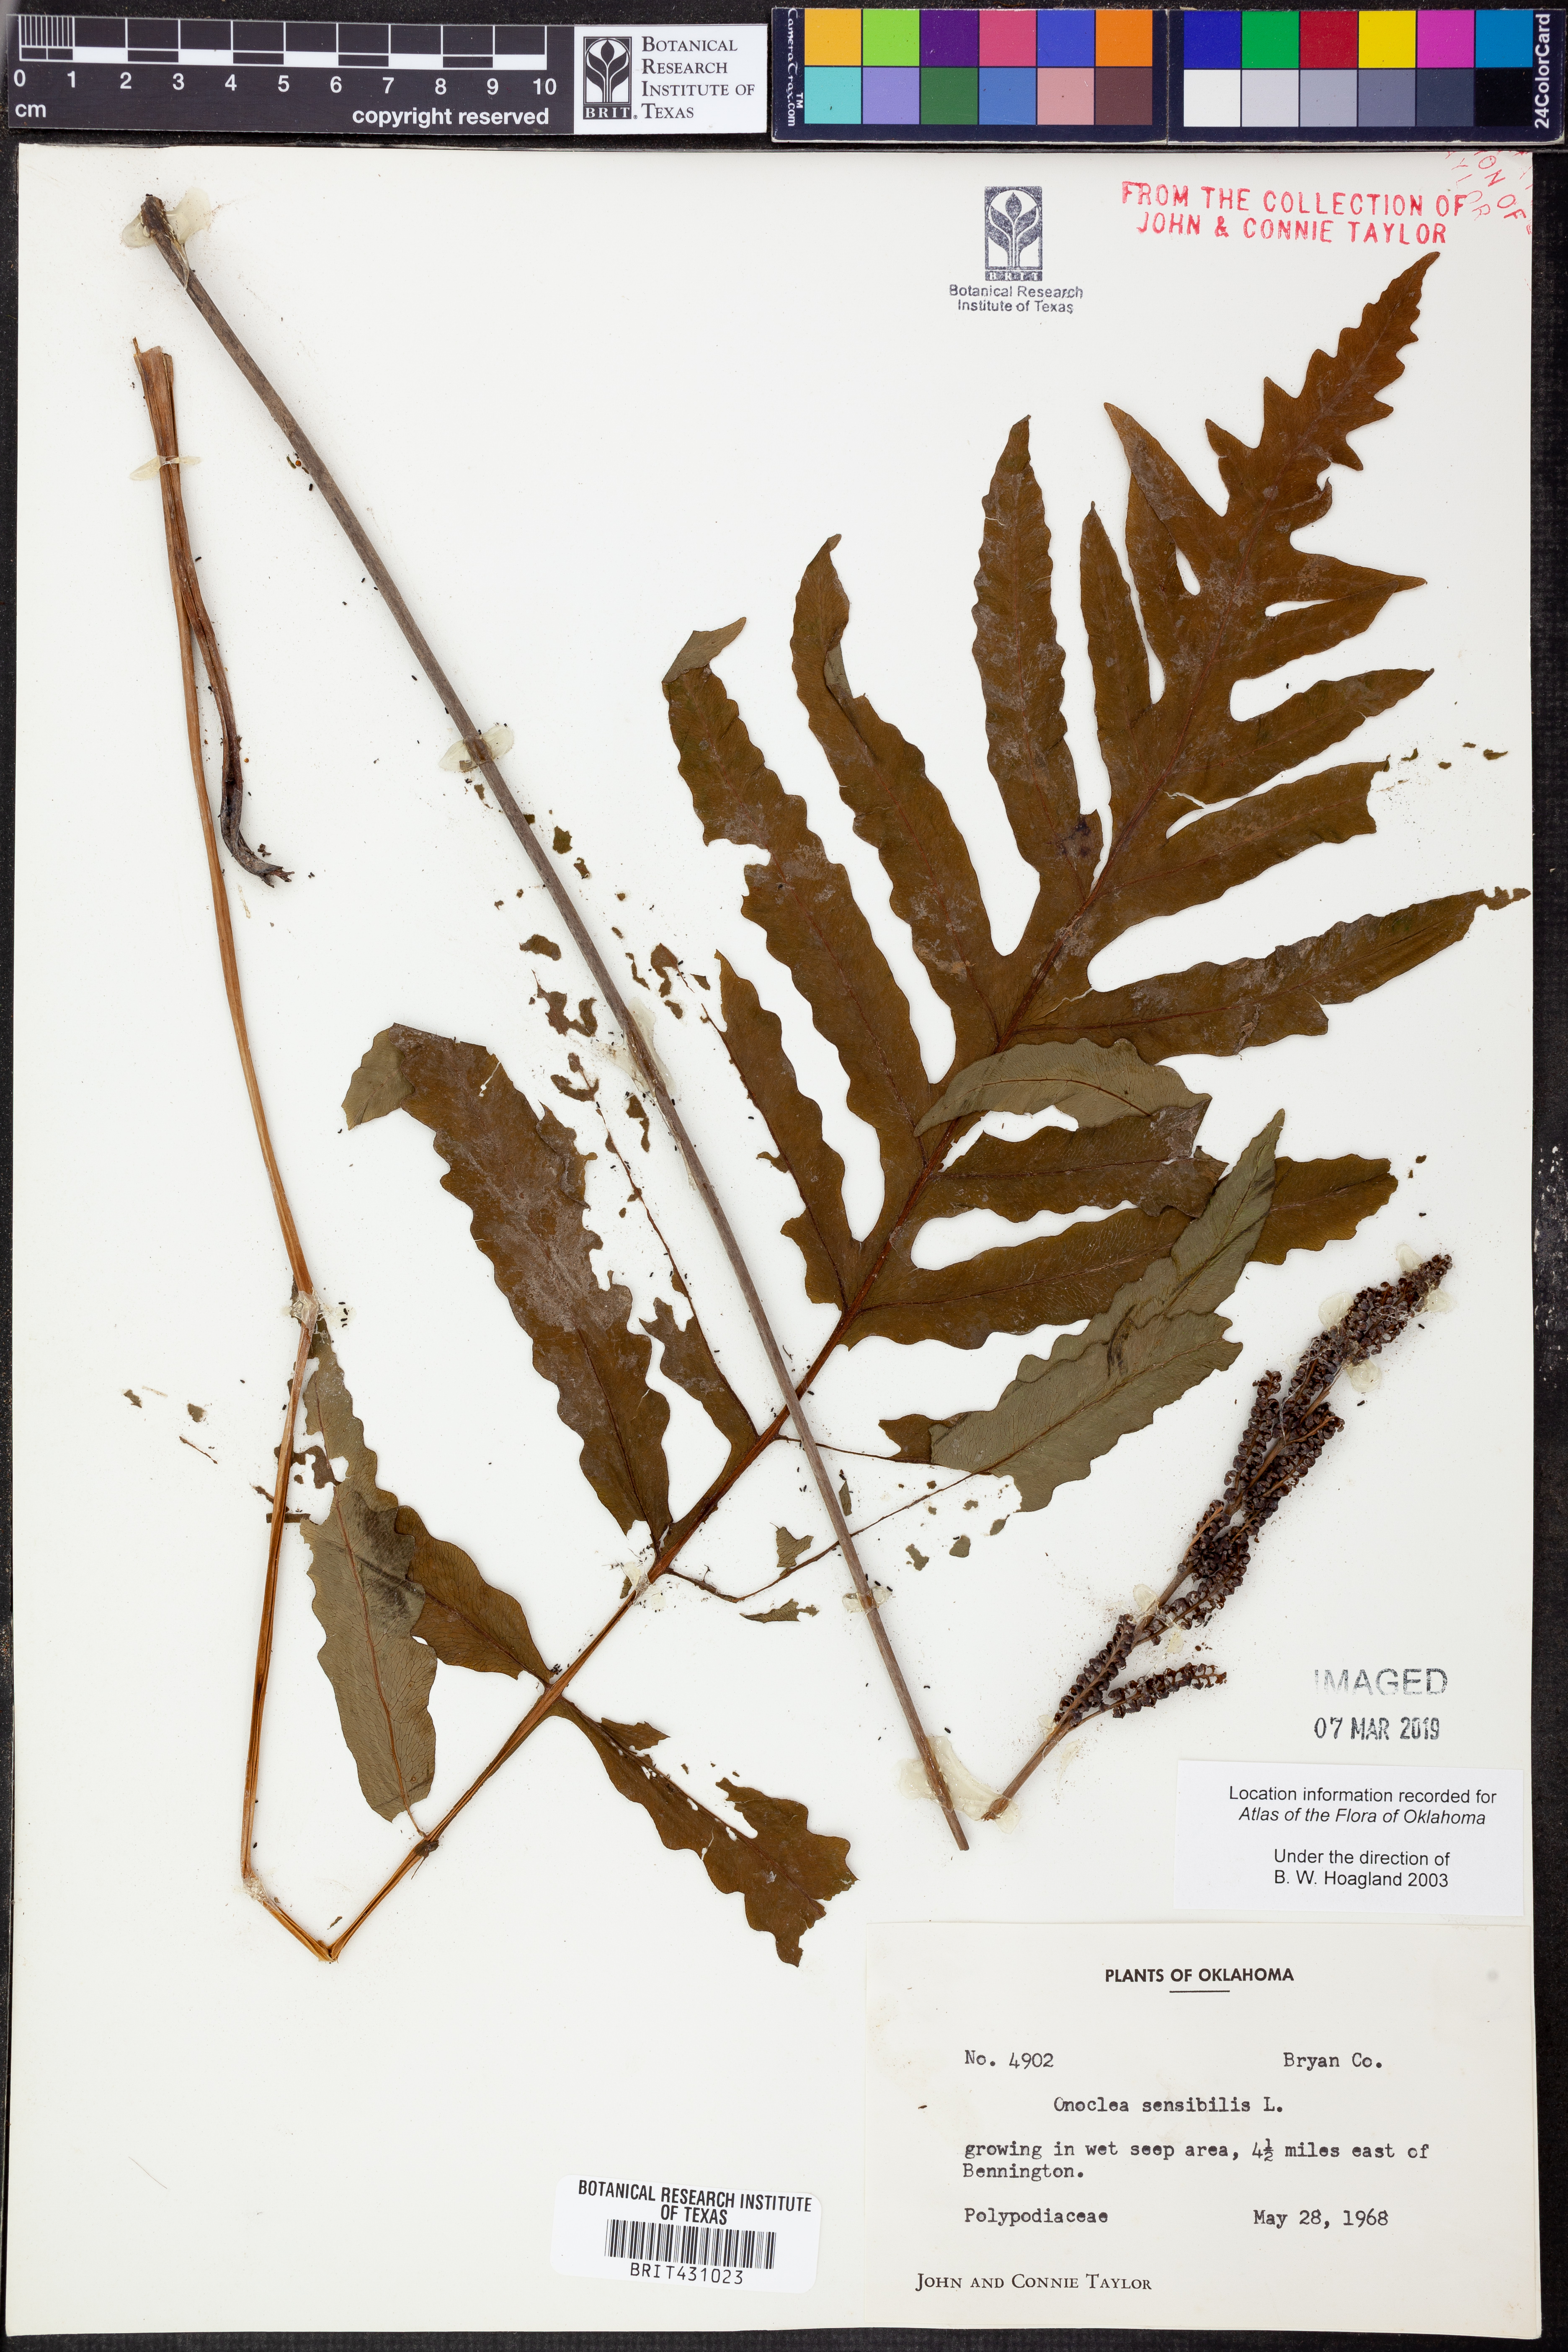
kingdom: Plantae
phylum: Tracheophyta
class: Polypodiopsida
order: Polypodiales
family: Onocleaceae
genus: Onoclea
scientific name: Onoclea sensibilis
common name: Sensitive fern
